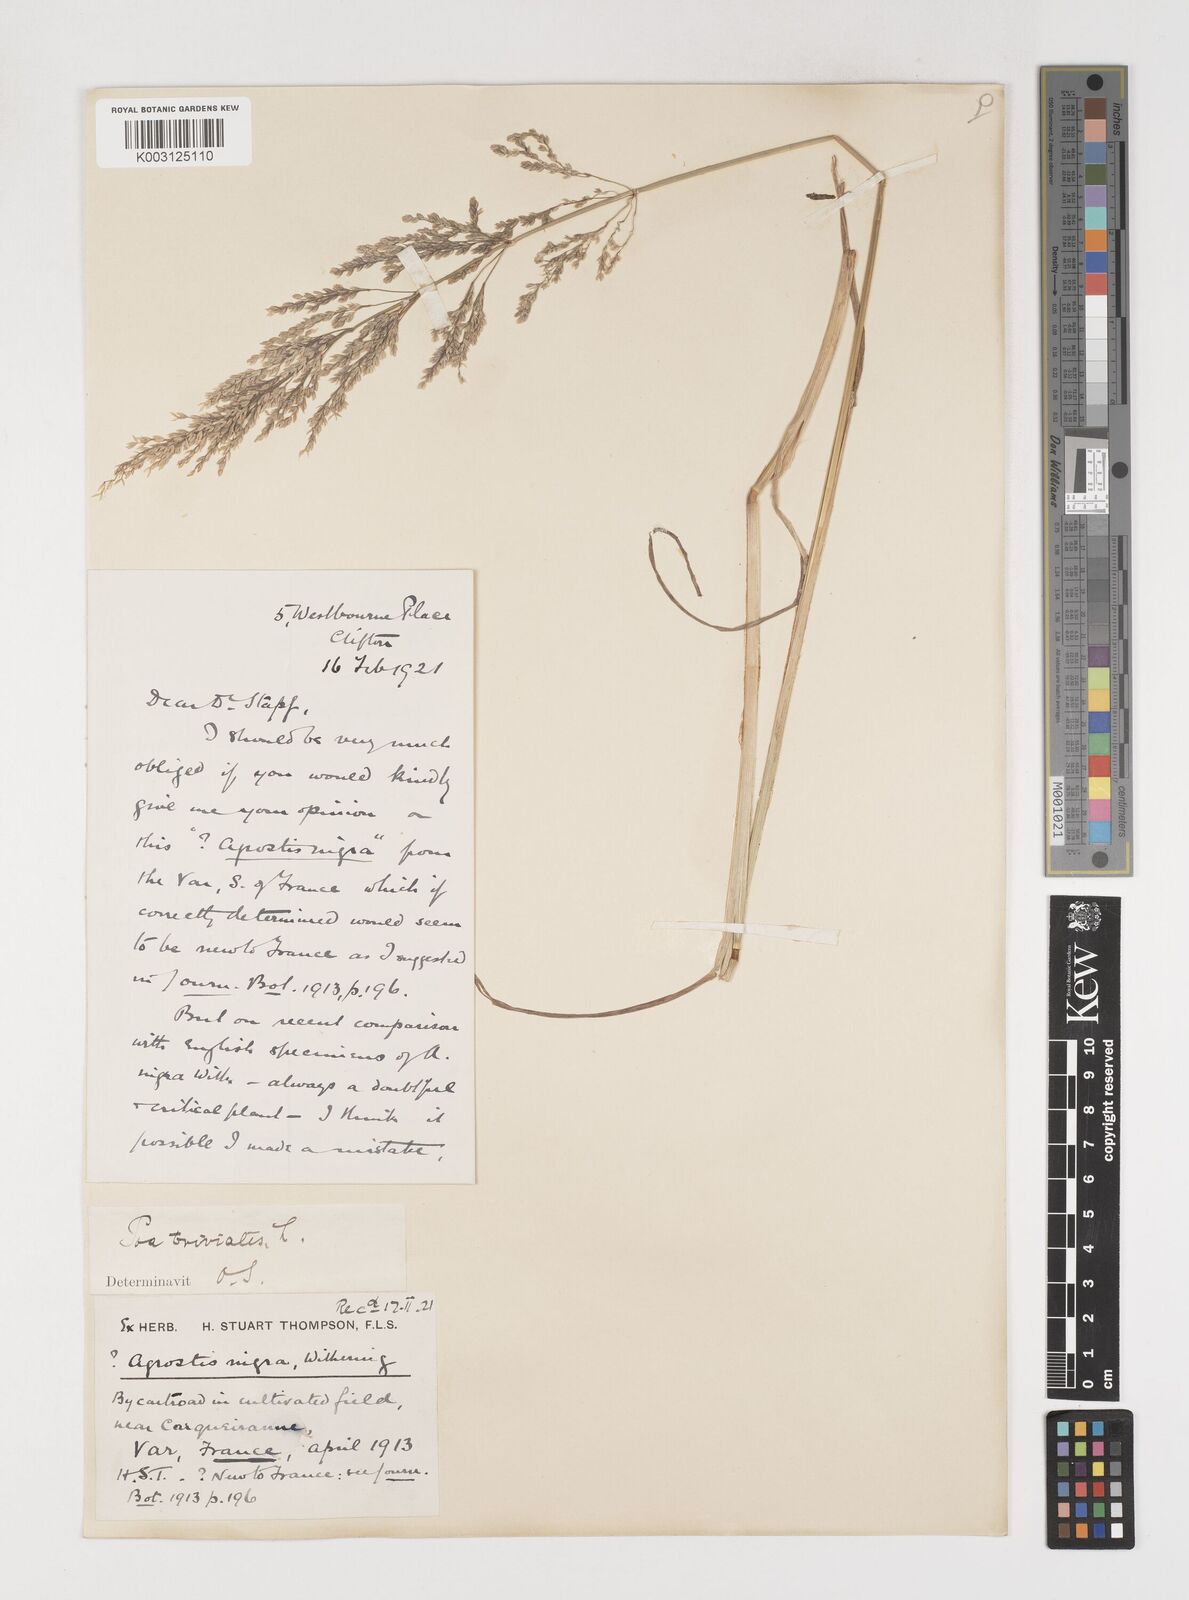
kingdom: Plantae
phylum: Tracheophyta
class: Liliopsida
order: Poales
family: Poaceae
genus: Poa
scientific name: Poa trivialis
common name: Rough bluegrass
